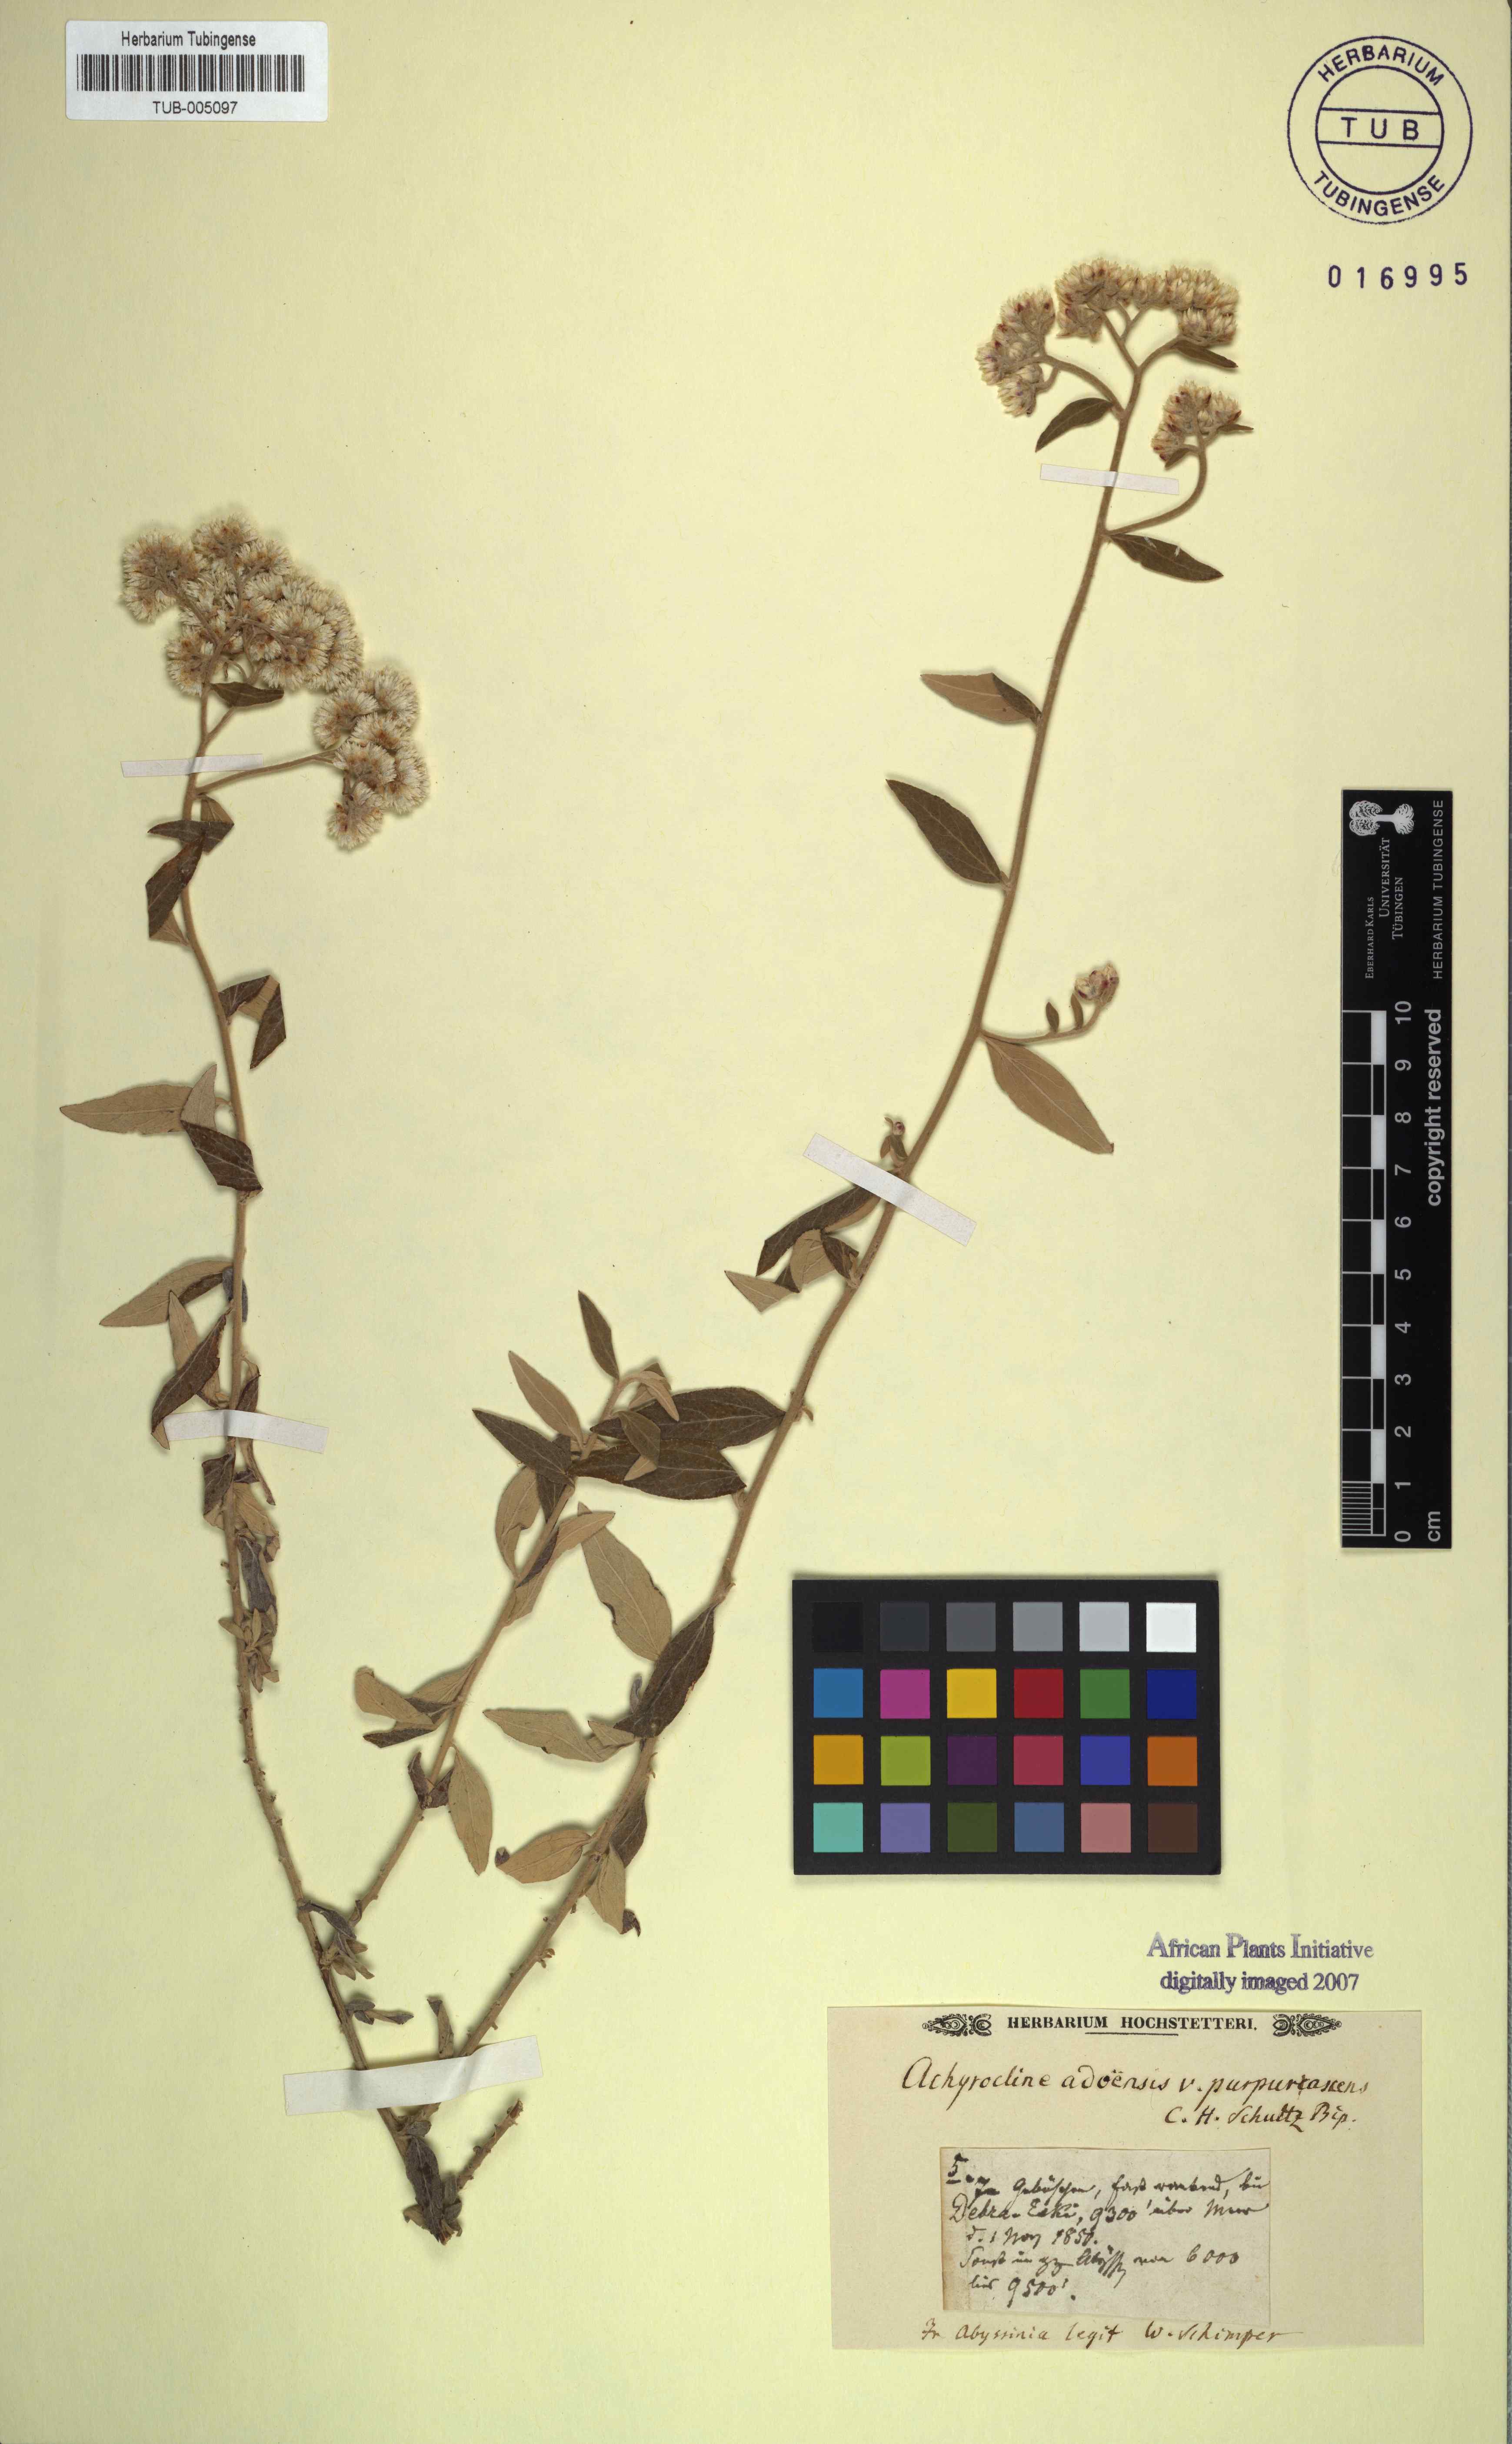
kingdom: Plantae
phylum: Tracheophyta
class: Magnoliopsida
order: Asterales
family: Asteraceae
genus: Helichrysum
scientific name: Helichrysum schimperi
